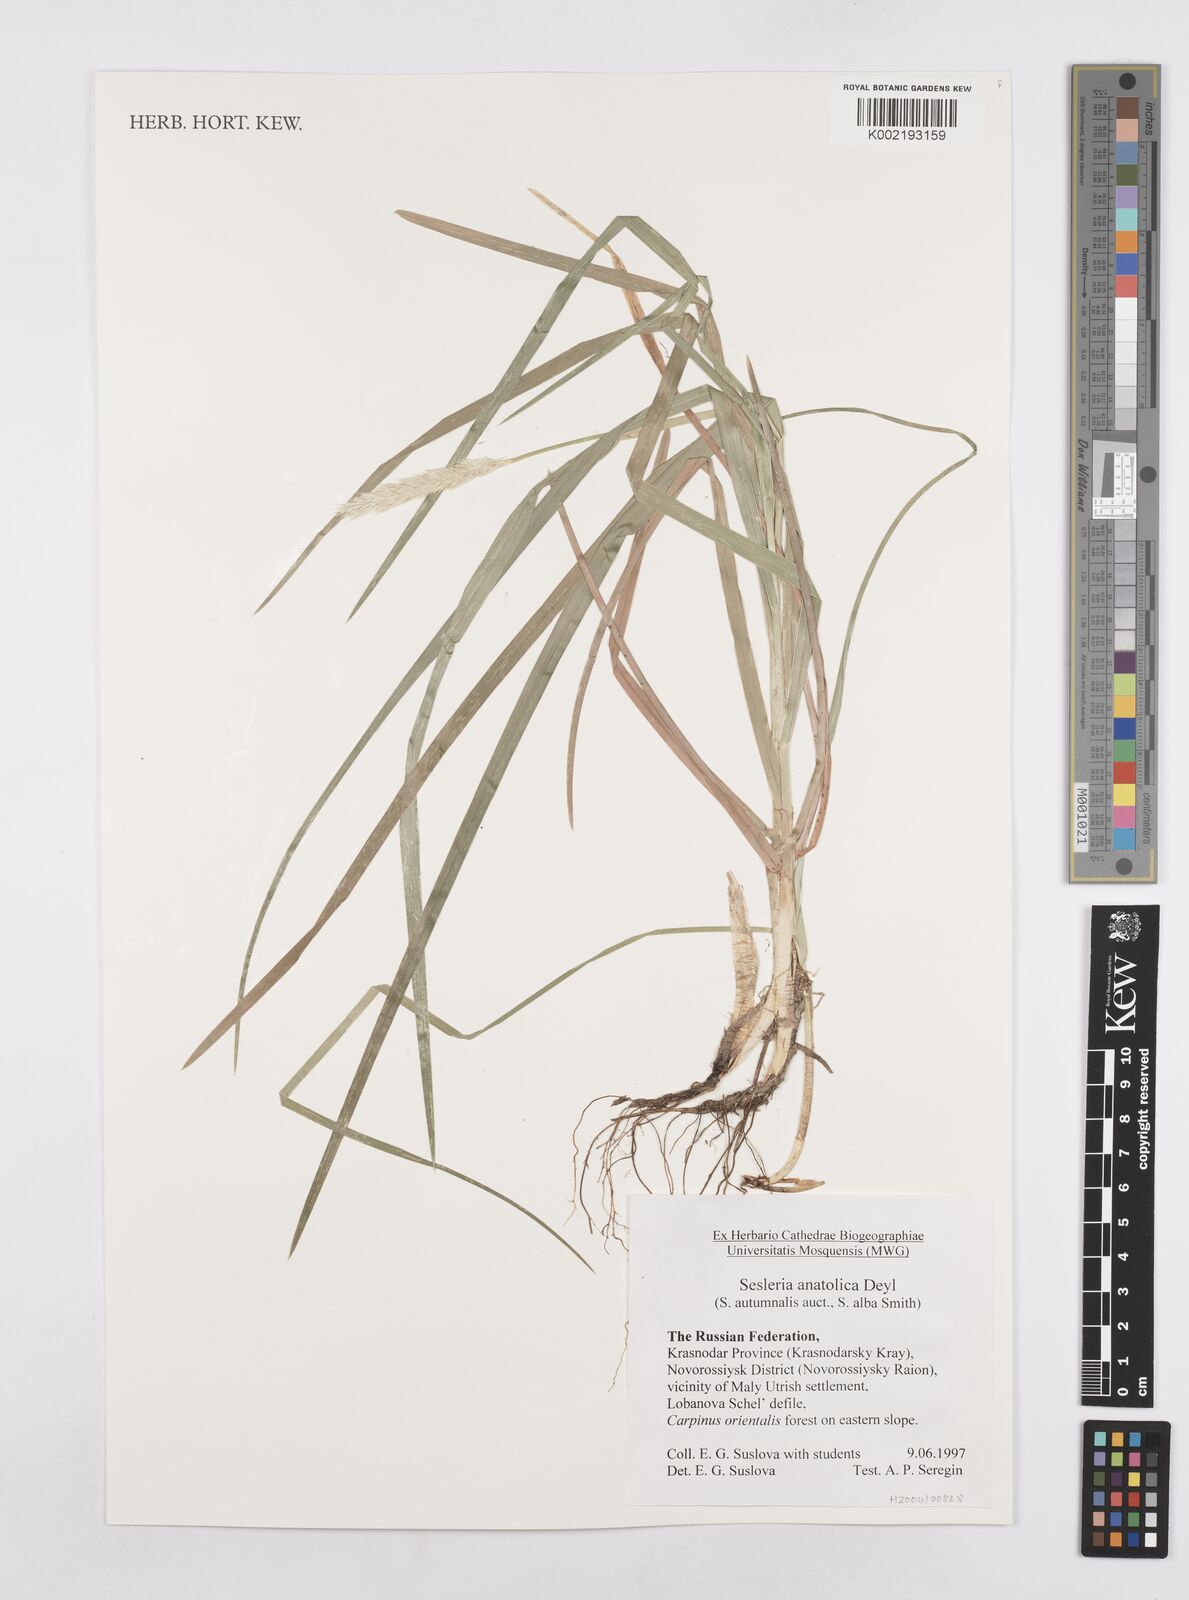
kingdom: Plantae
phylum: Tracheophyta
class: Liliopsida
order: Poales
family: Poaceae
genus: Sesleria
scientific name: Sesleria alba
